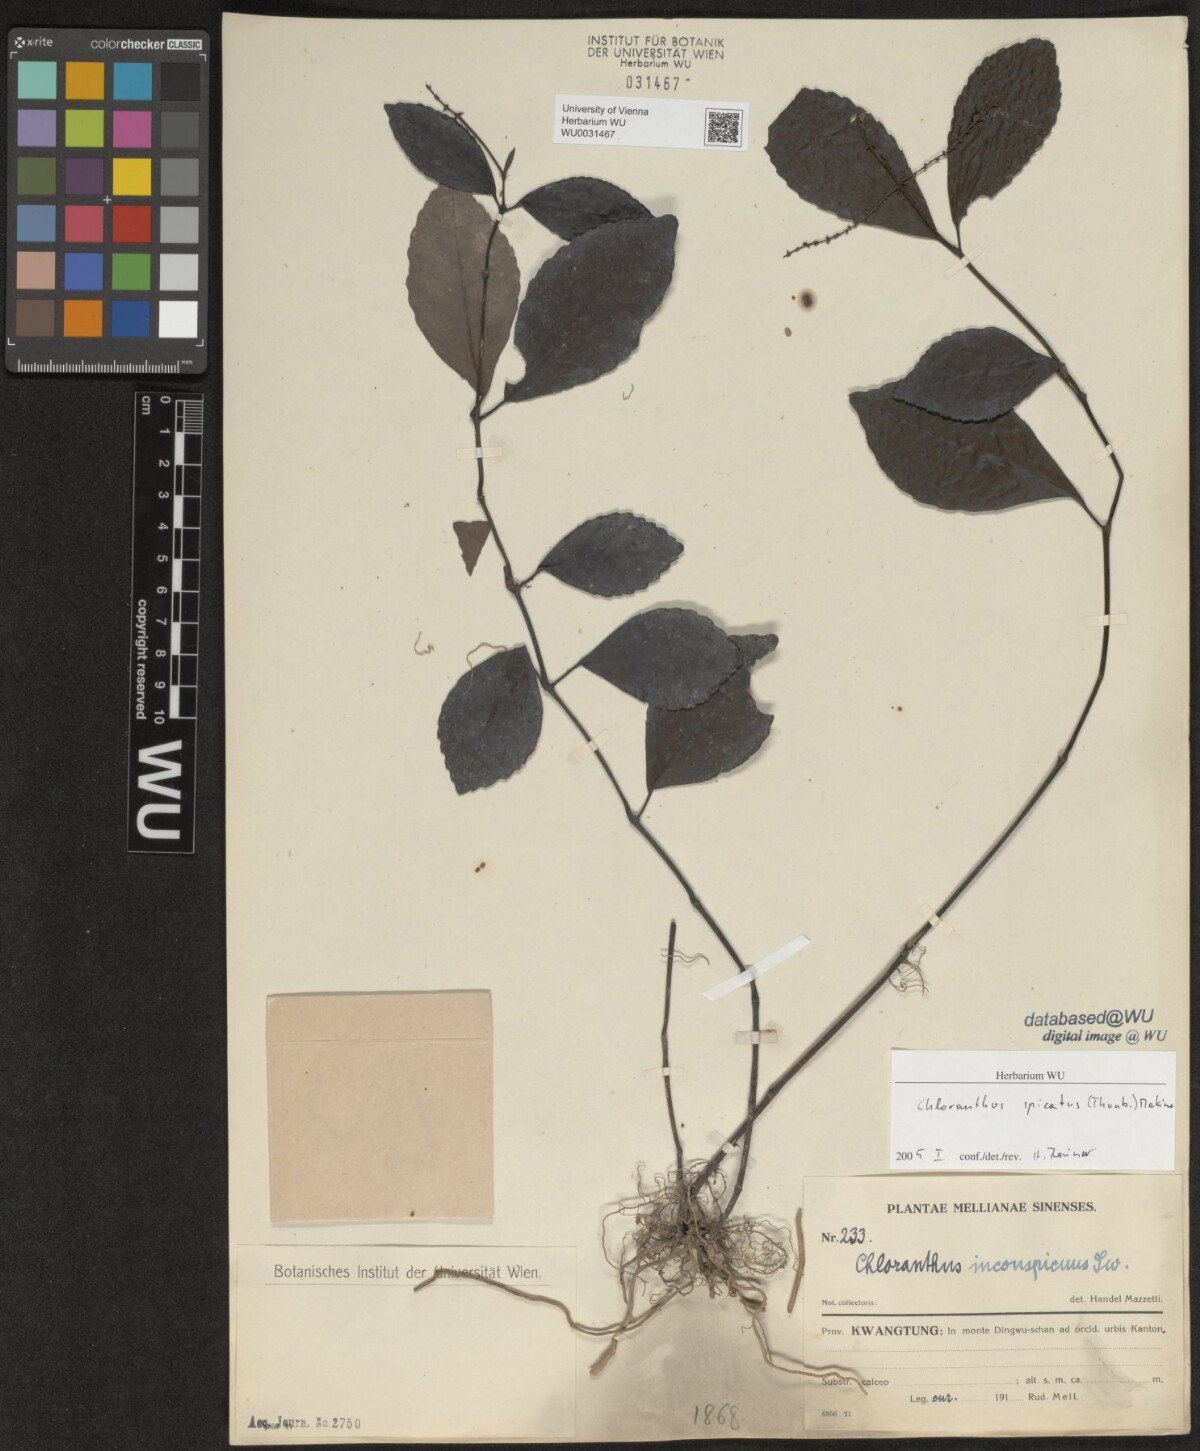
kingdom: Plantae
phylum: Tracheophyta
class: Magnoliopsida
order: Chloranthales
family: Chloranthaceae
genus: Chloranthus
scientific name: Chloranthus spicatus
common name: Chulantree
